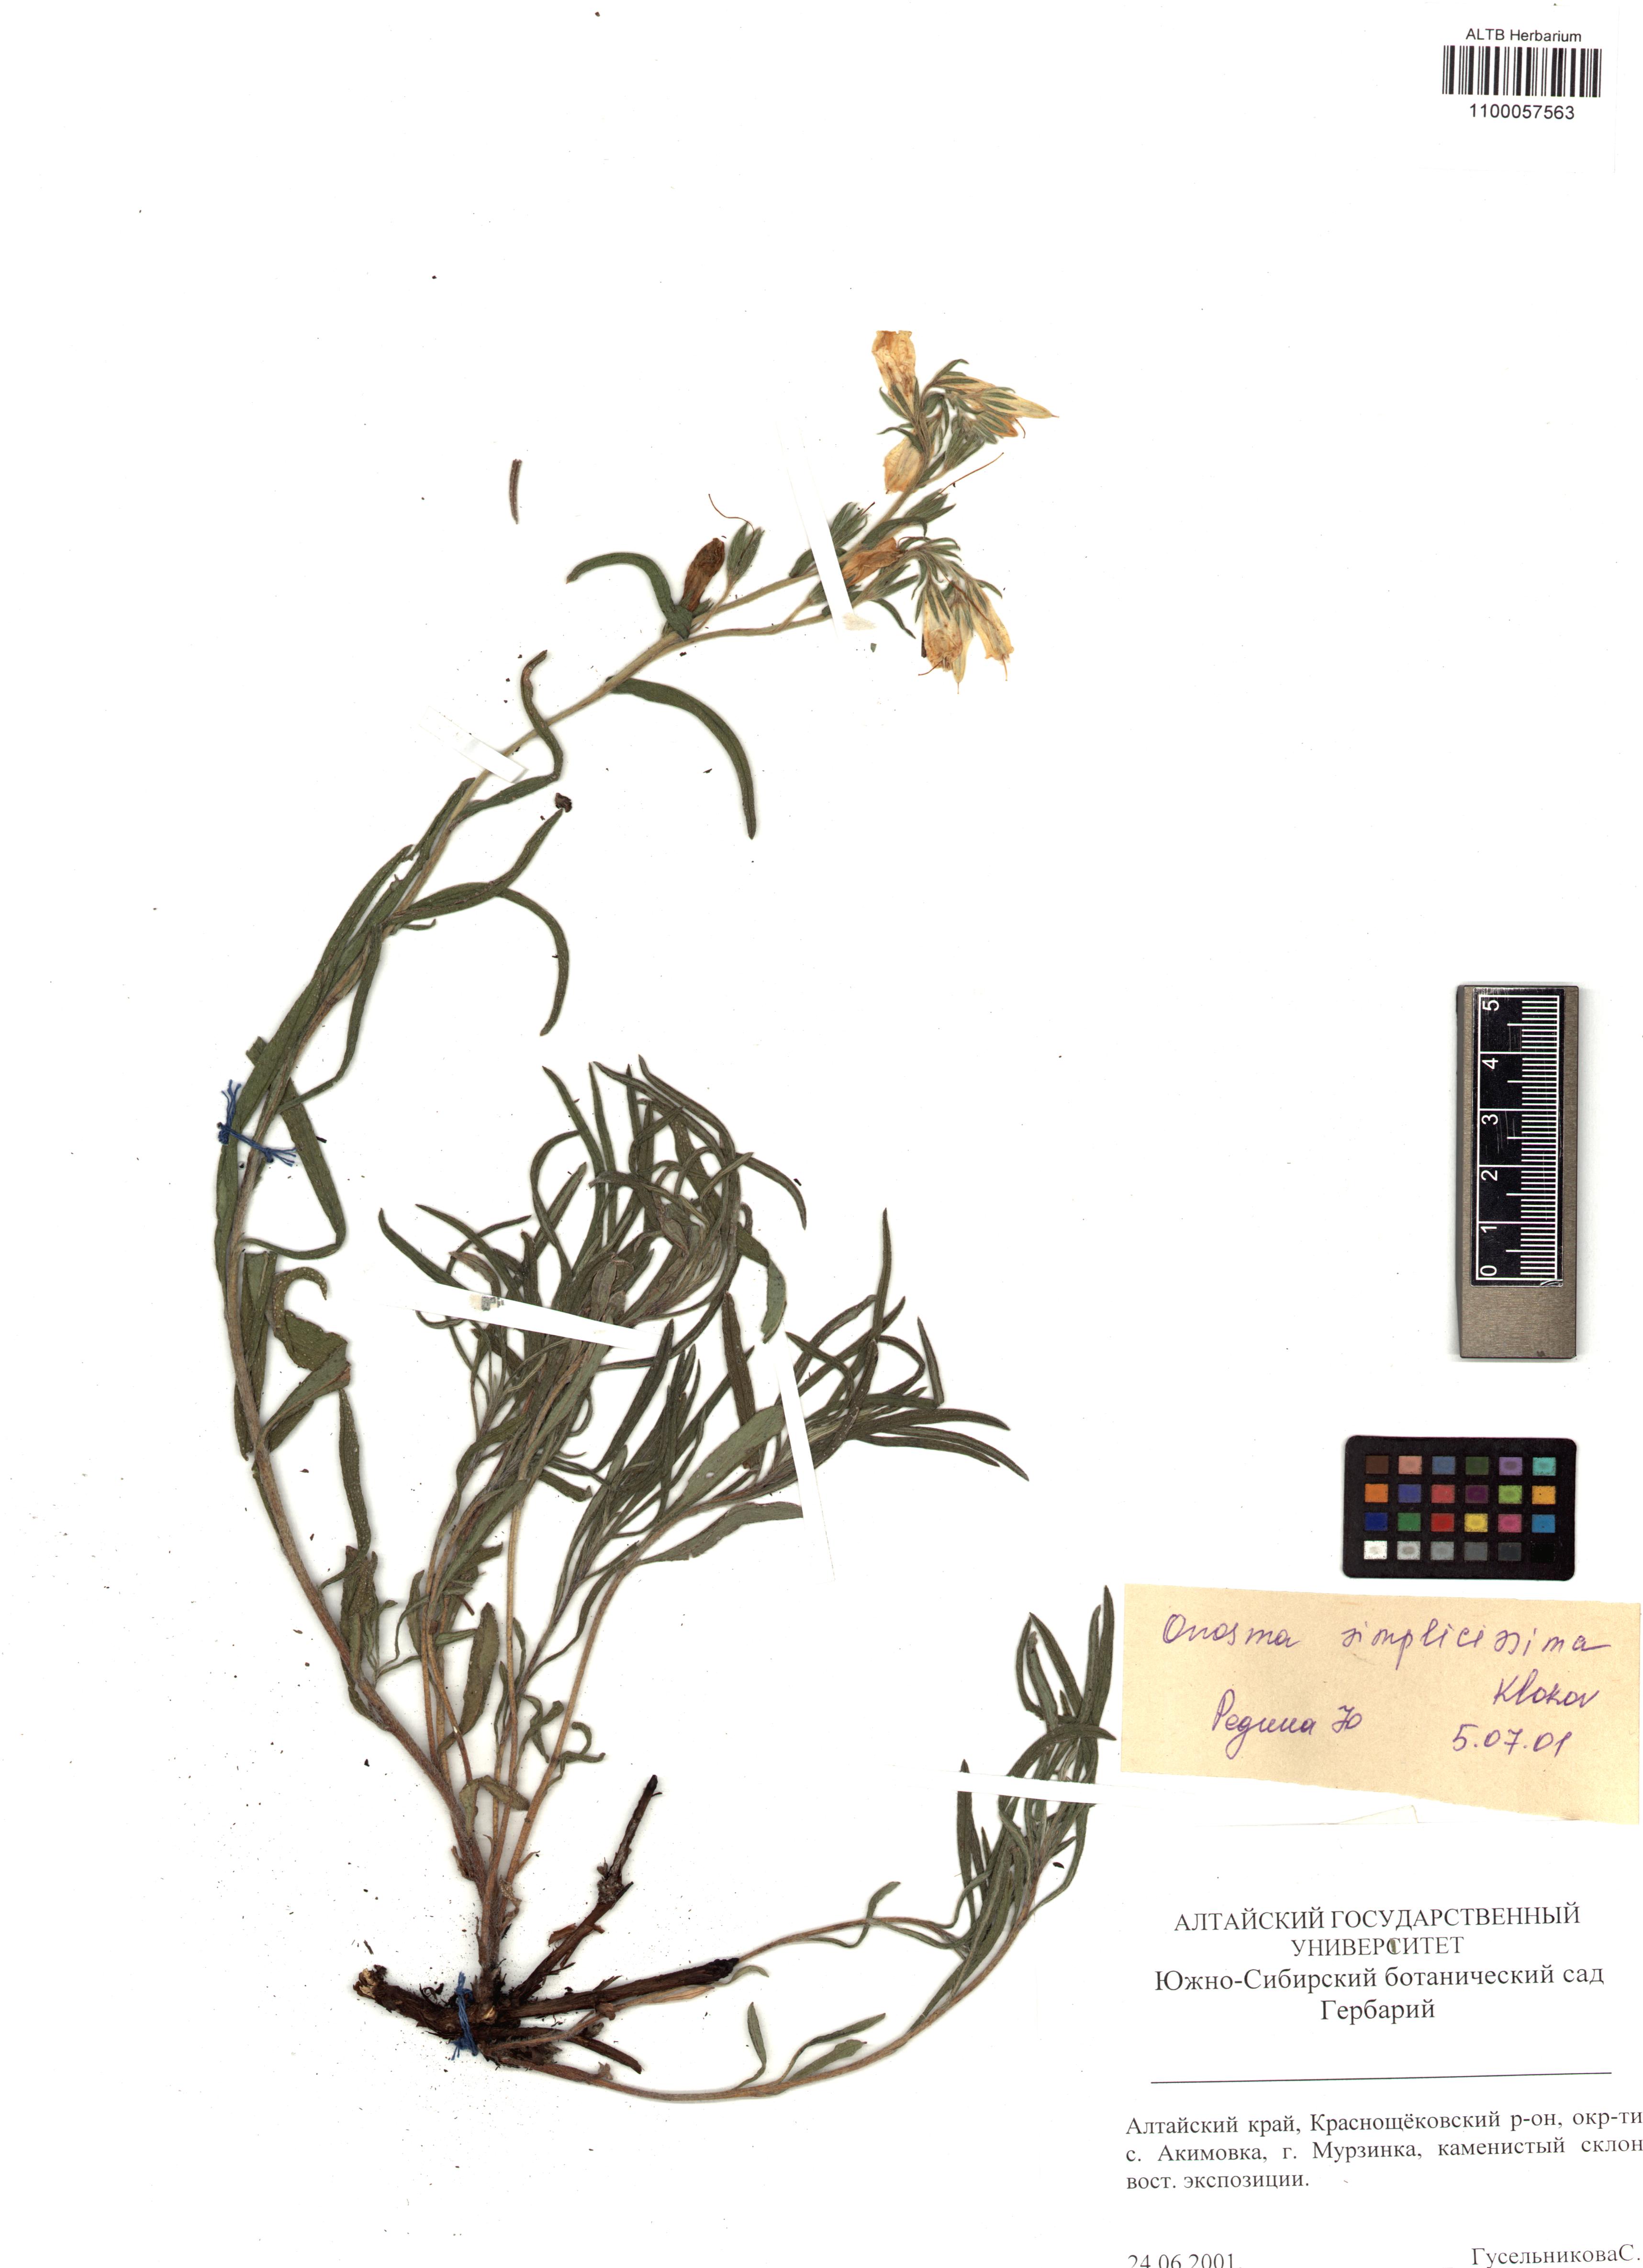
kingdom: Plantae
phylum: Tracheophyta
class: Magnoliopsida
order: Boraginales
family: Boraginaceae
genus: Onosma
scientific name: Onosma simplicissima
